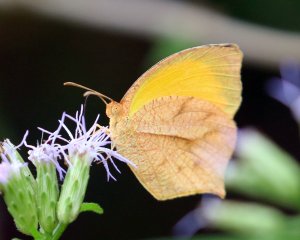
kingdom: Animalia
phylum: Arthropoda
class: Insecta
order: Lepidoptera
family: Pieridae
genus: Pyrisitia
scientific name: Pyrisitia proterpia
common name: Tailed Orange
